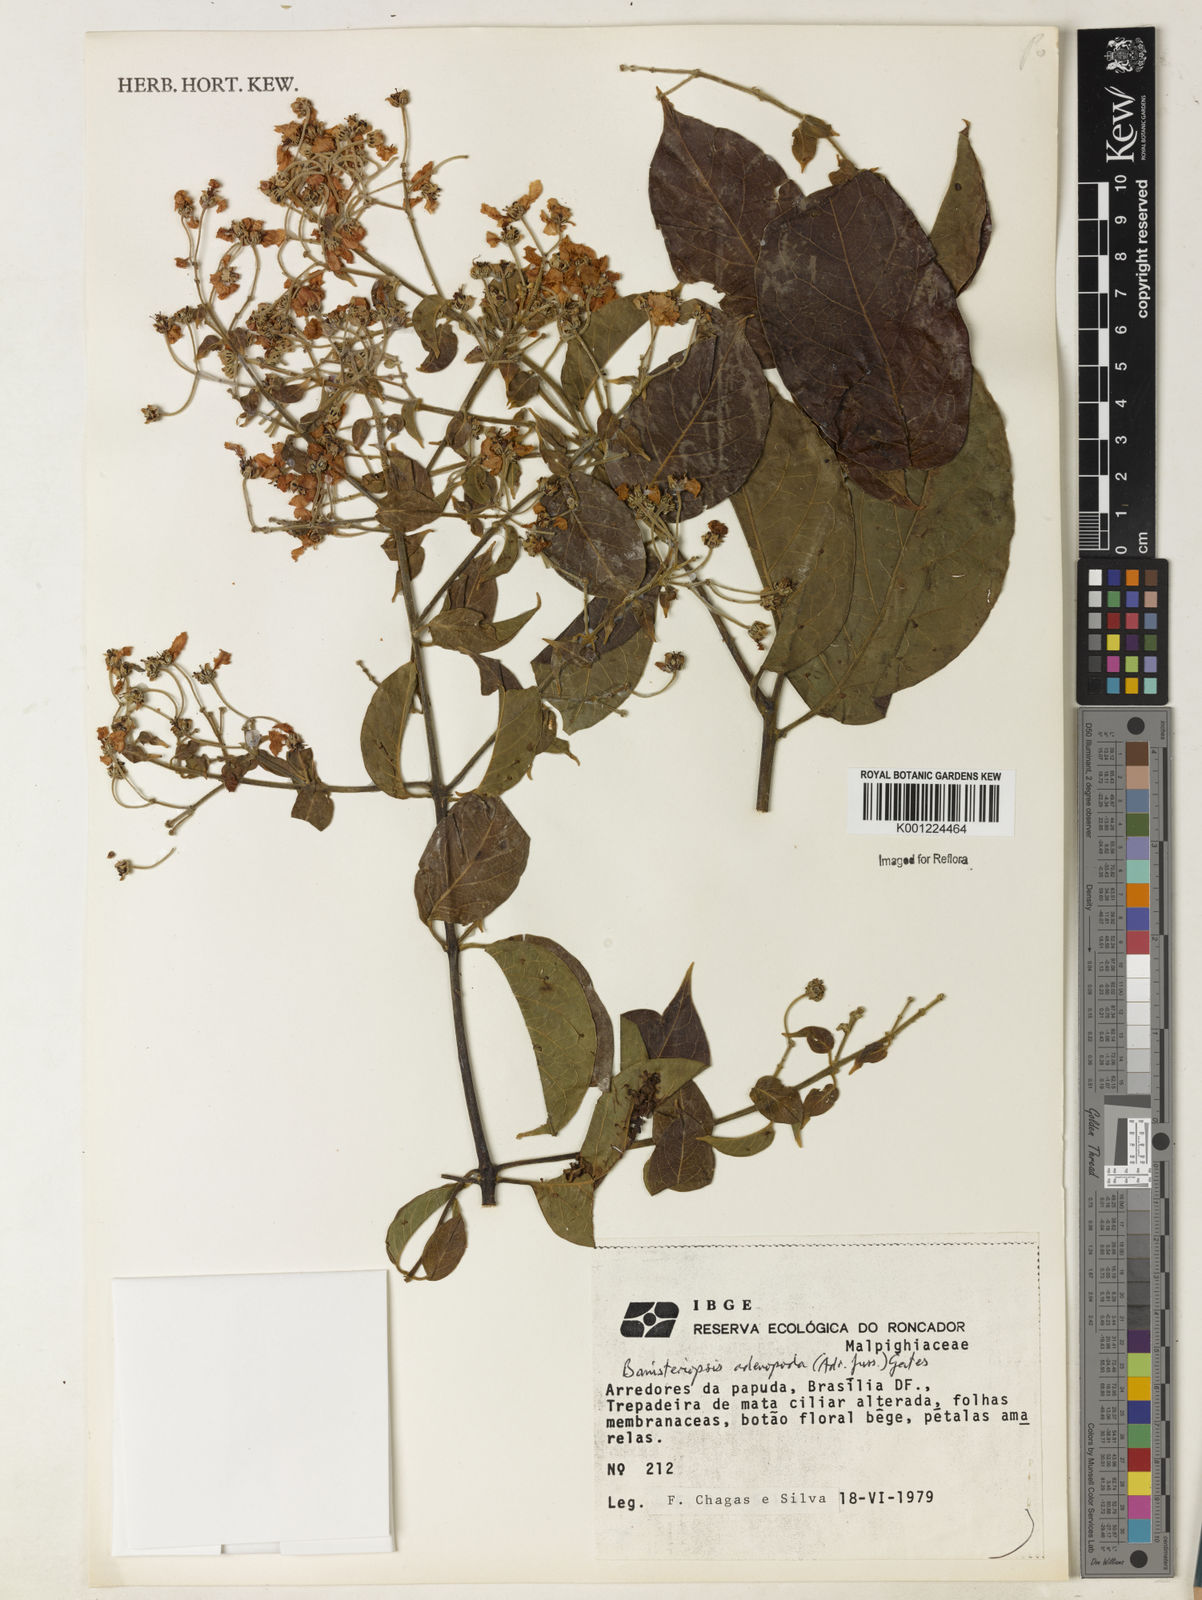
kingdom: Plantae
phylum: Tracheophyta
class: Magnoliopsida
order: Malpighiales
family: Malpighiaceae
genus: Banisteriopsis
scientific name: Banisteriopsis adenopoda
